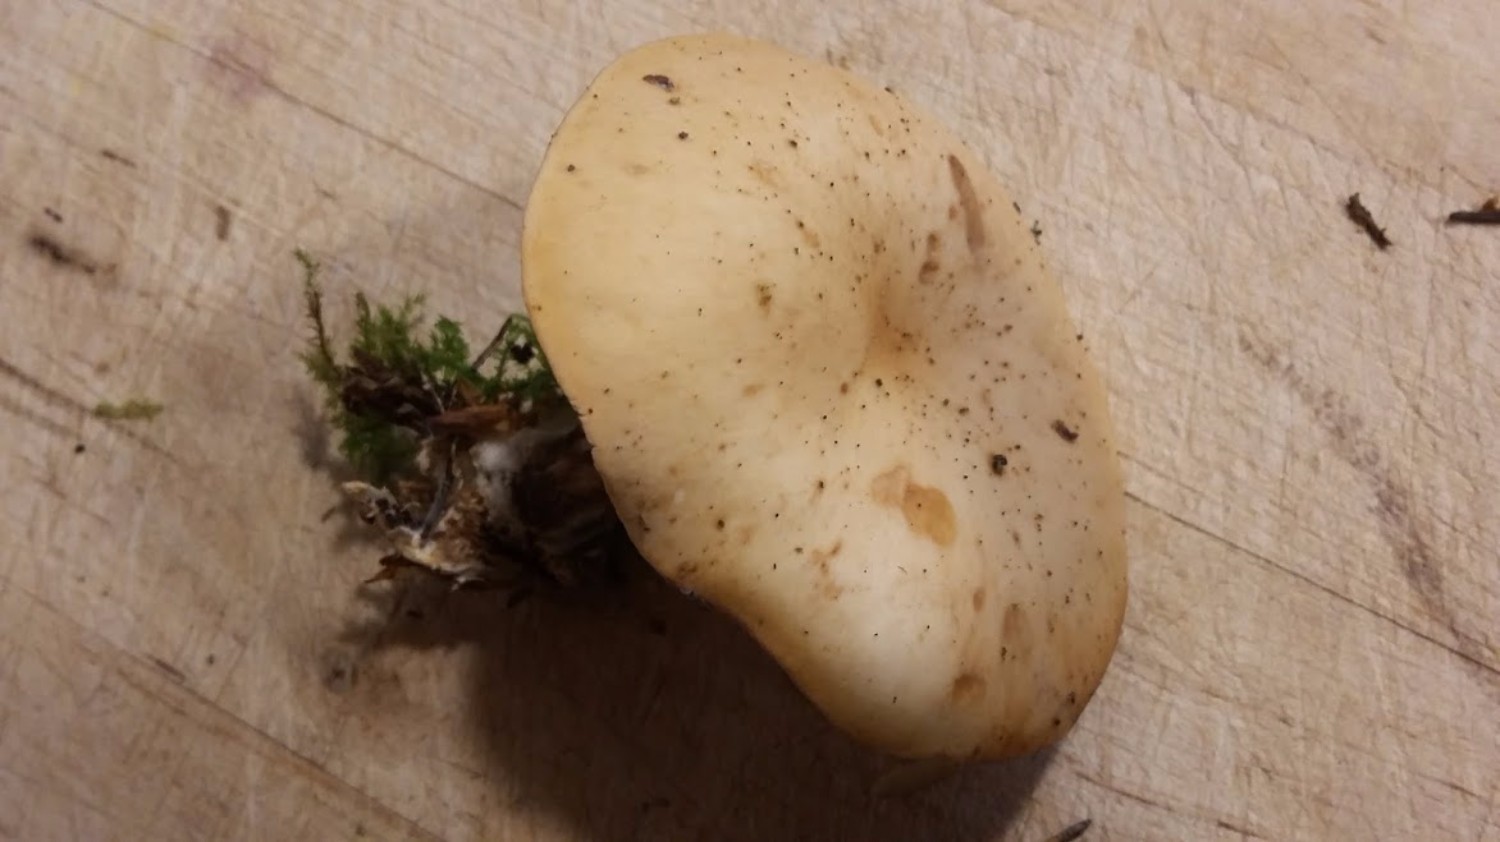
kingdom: Fungi
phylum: Basidiomycota
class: Agaricomycetes
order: Agaricales
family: Tricholomataceae
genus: Paralepista
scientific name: Paralepista flaccida
